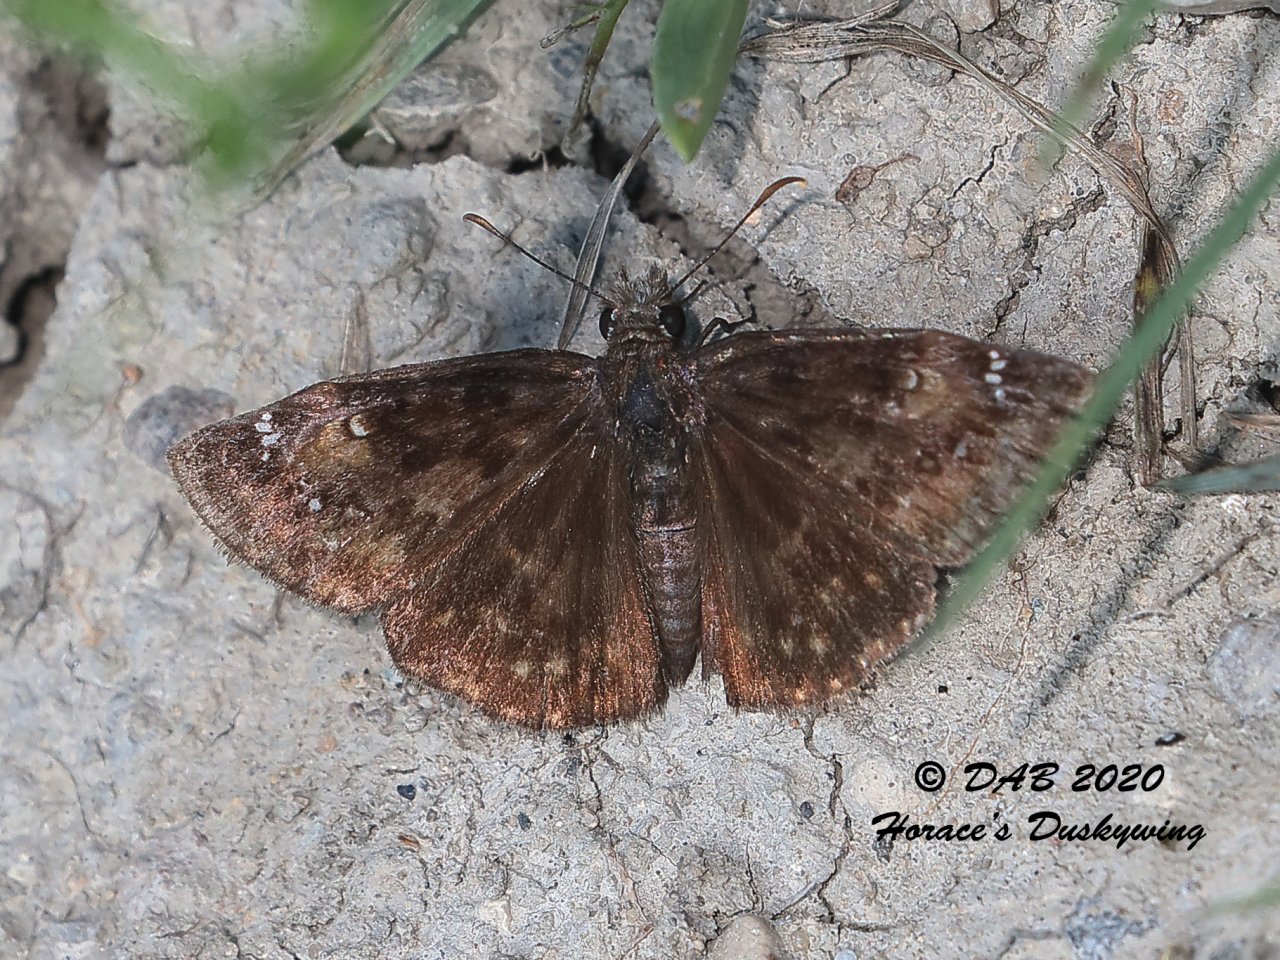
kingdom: Animalia
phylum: Arthropoda
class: Insecta
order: Lepidoptera
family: Hesperiidae
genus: Erynnis
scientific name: Erynnis
